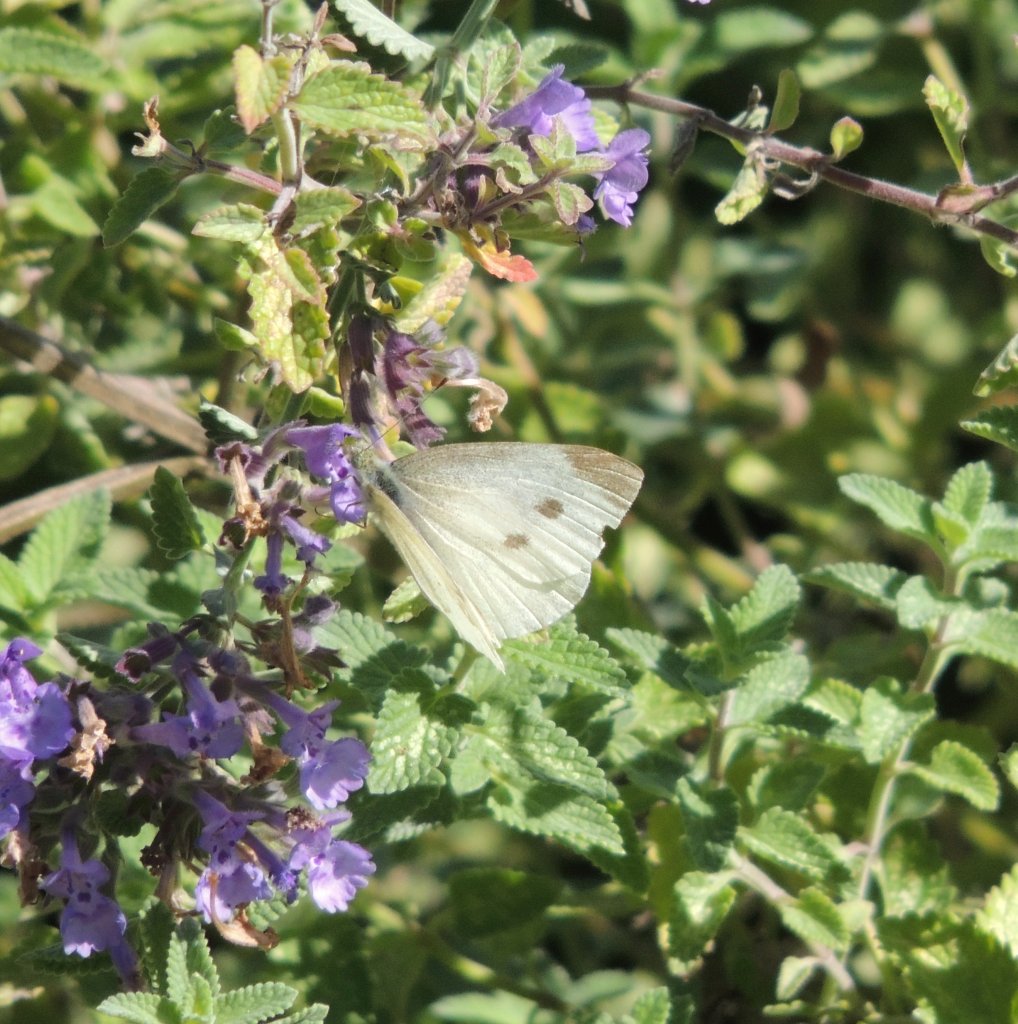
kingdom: Animalia
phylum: Arthropoda
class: Insecta
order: Lepidoptera
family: Pieridae
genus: Pieris
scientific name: Pieris rapae
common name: Cabbage White
